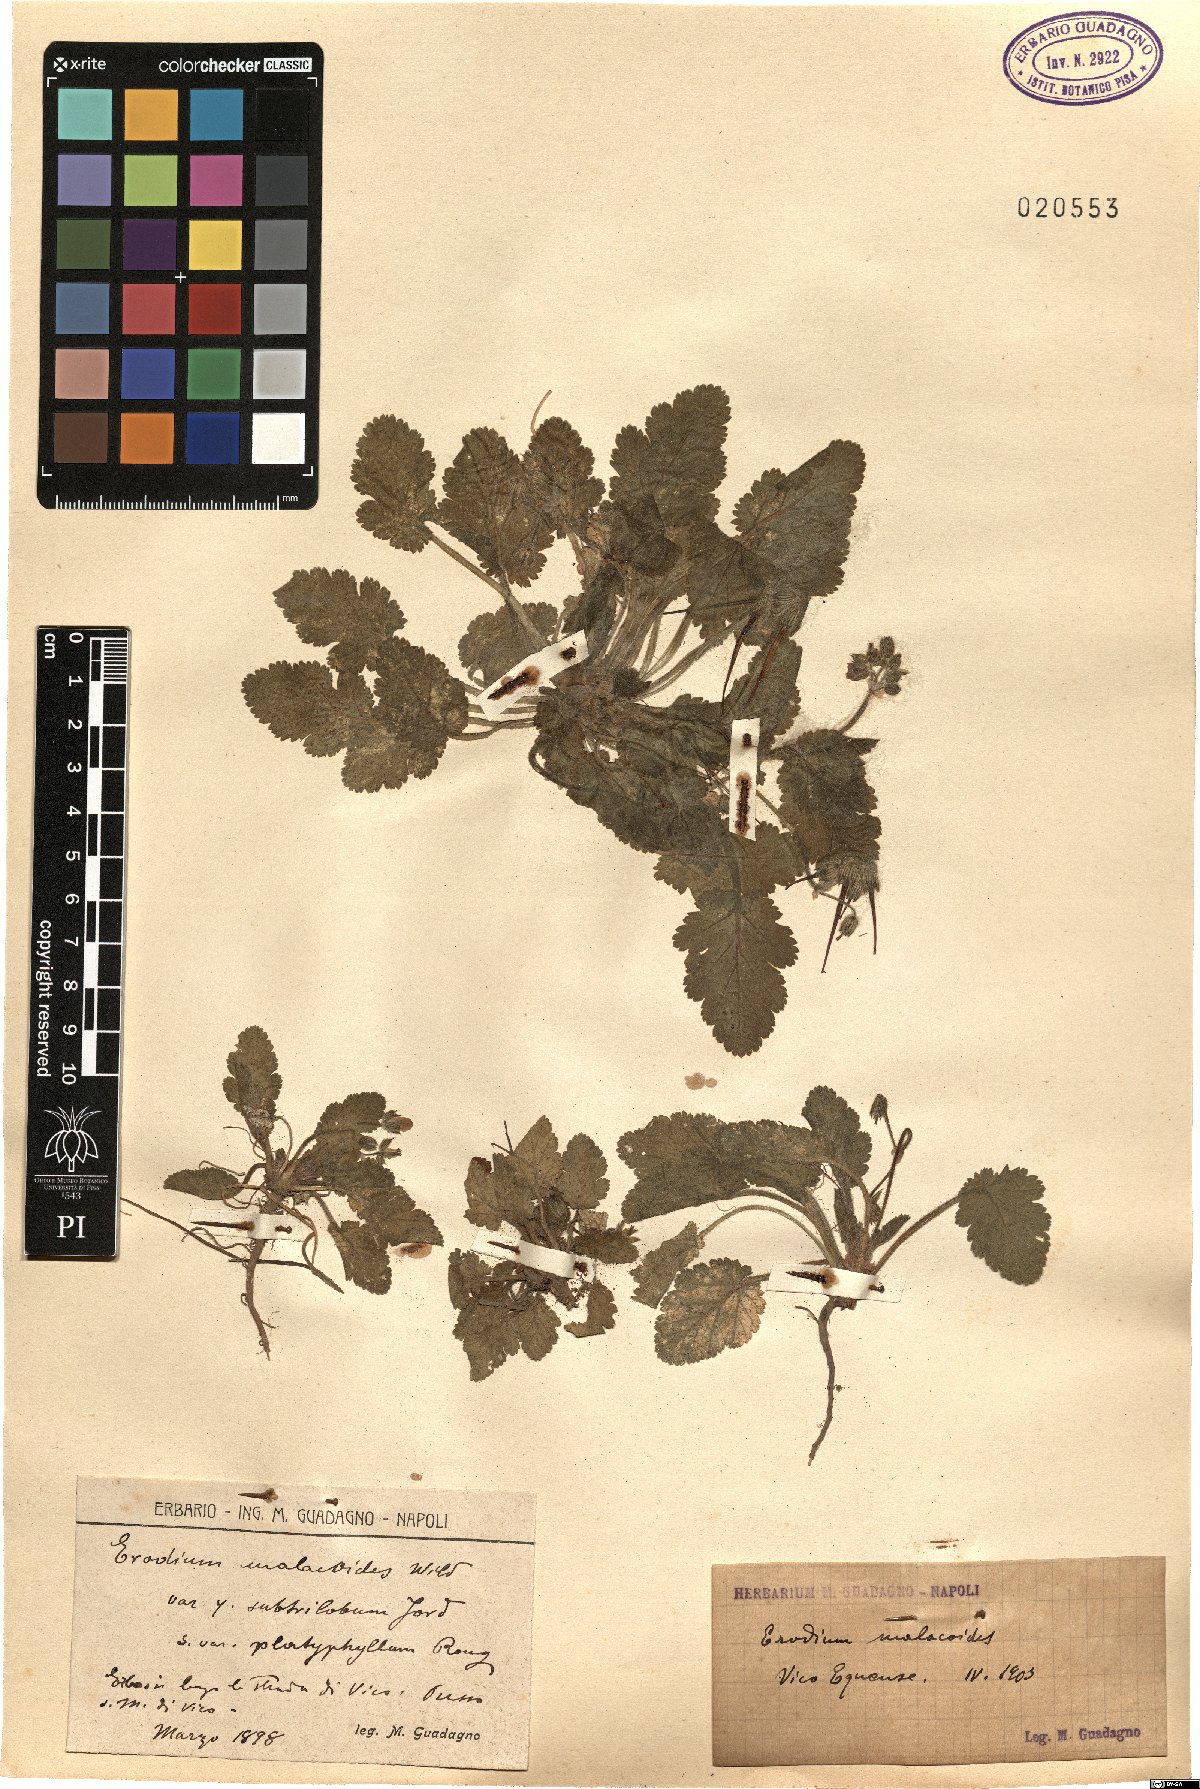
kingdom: Plantae
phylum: Tracheophyta
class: Magnoliopsida
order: Geraniales
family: Geraniaceae
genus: Erodium
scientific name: Erodium malacoides
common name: Soft stork's-bill
